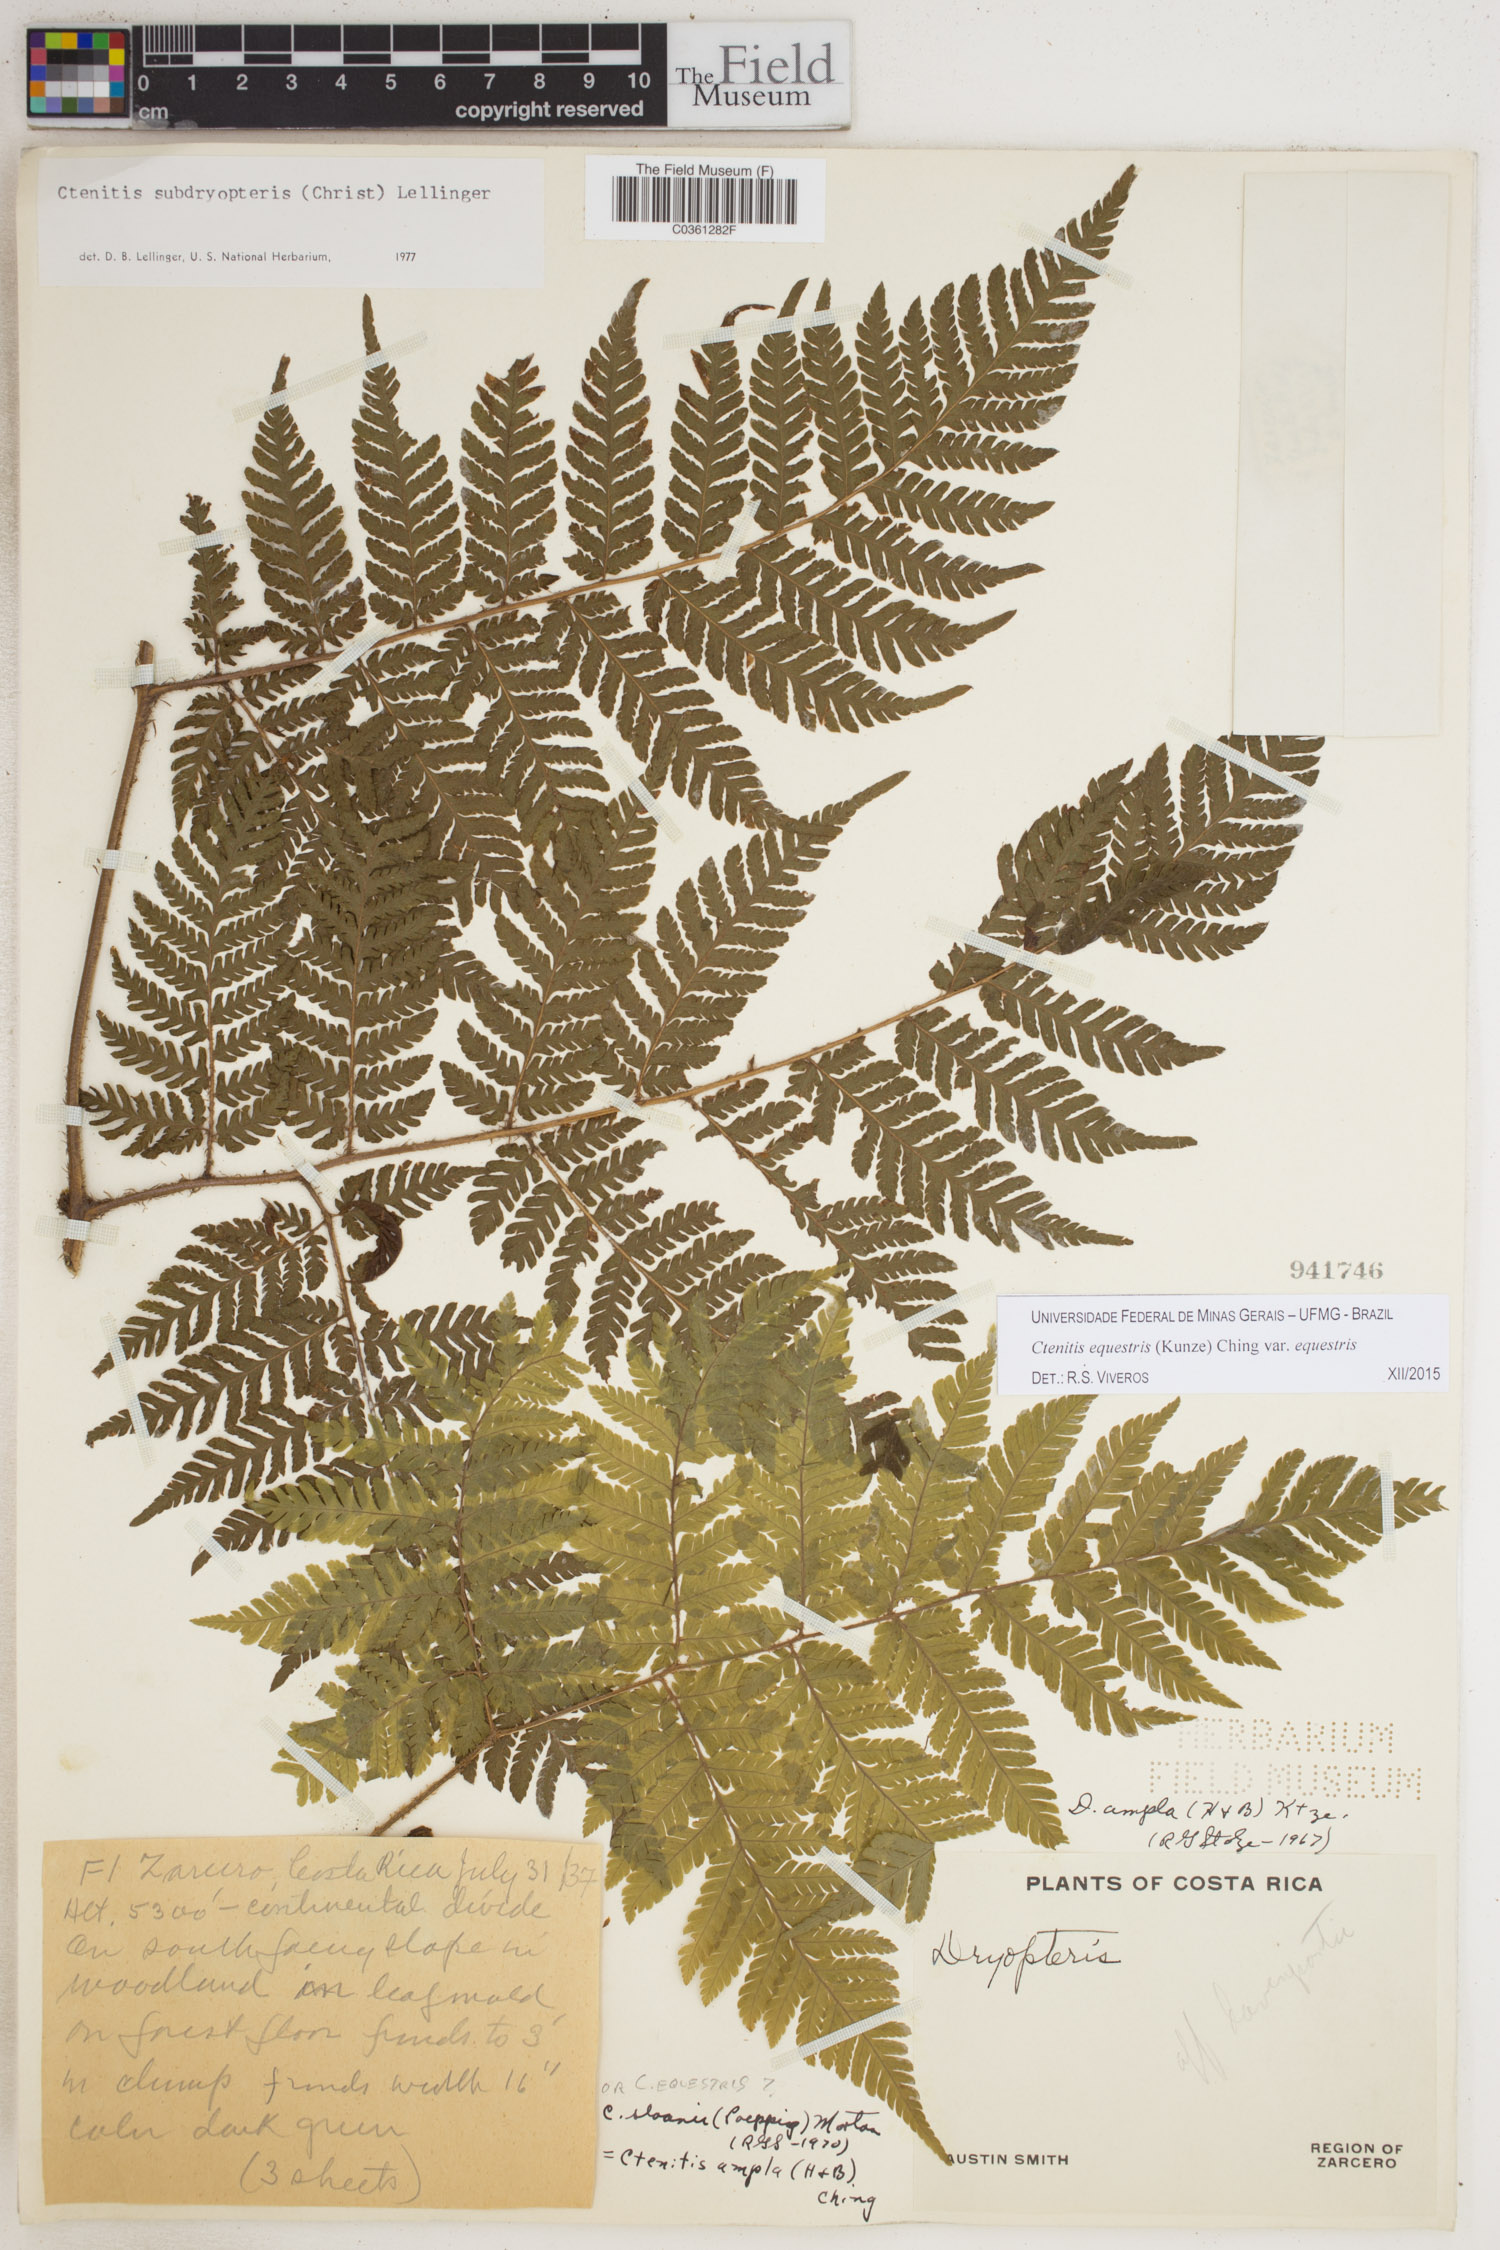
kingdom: Plantae
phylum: Tracheophyta
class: Polypodiopsida
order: Polypodiales
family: Dryopteridaceae
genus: Ctenitis
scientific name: Ctenitis equestris
